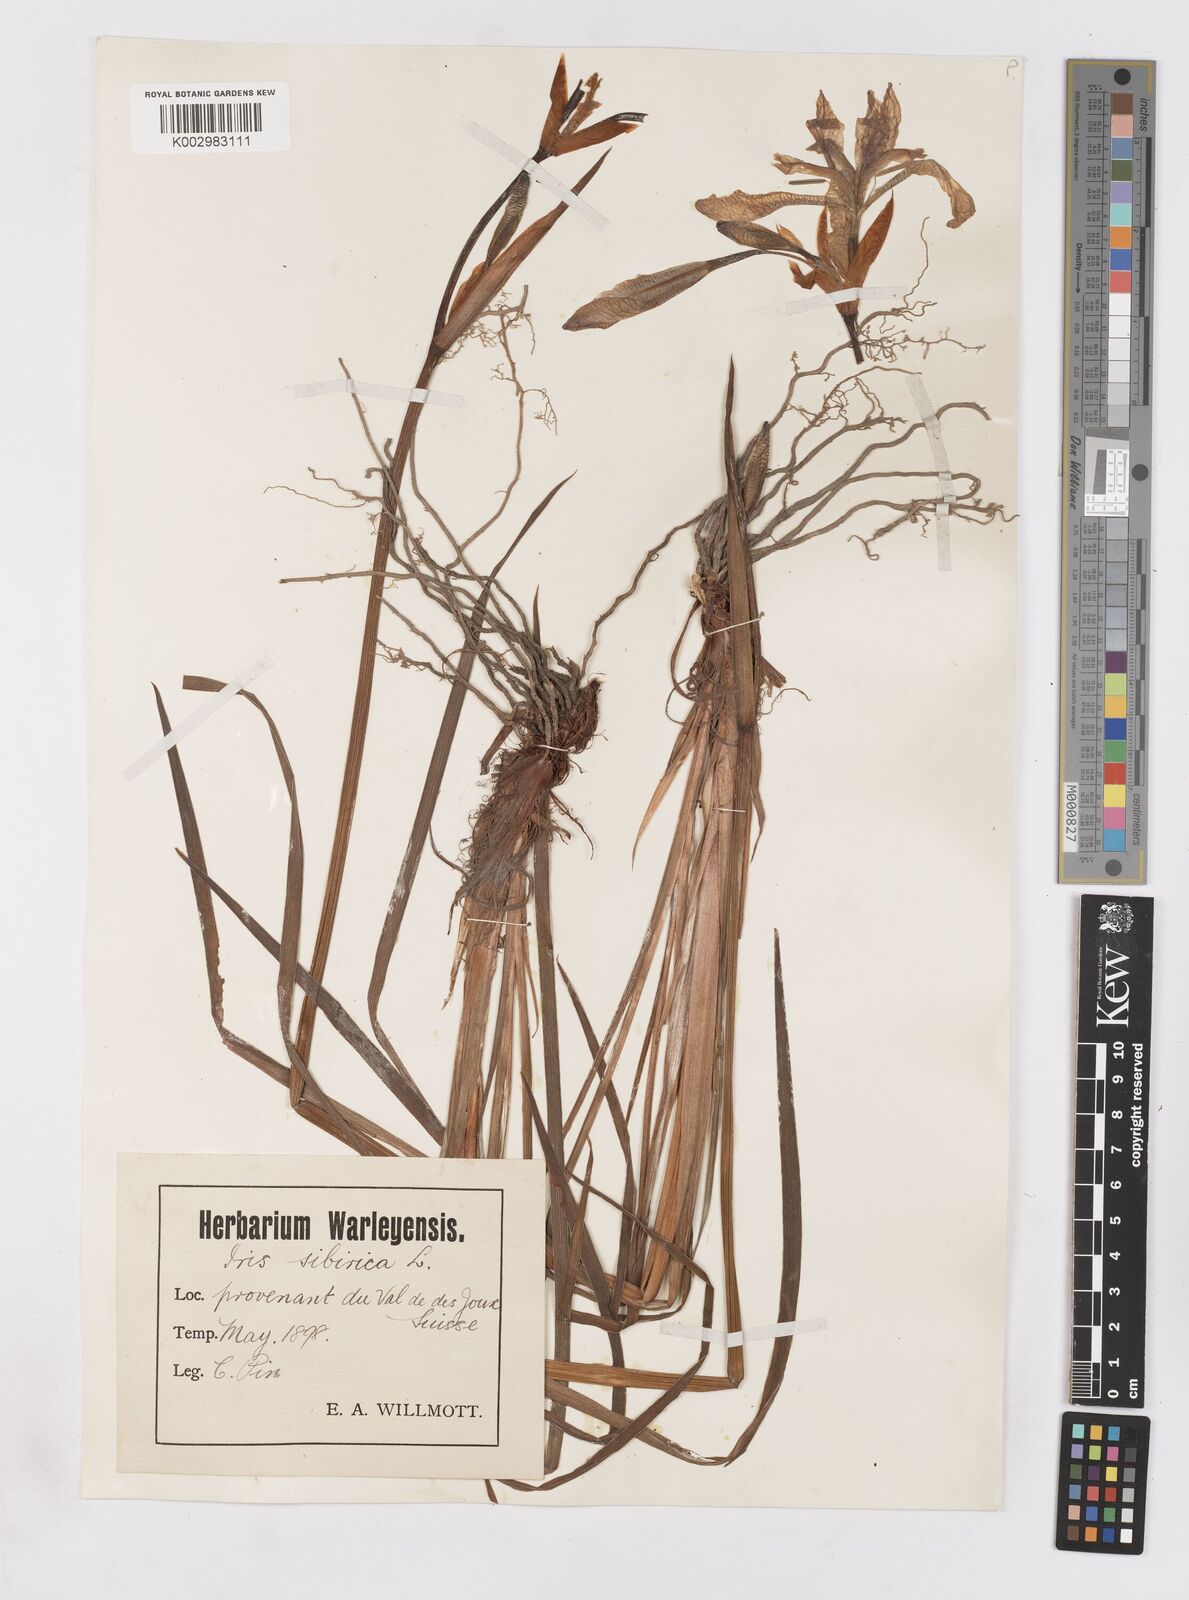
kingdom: Plantae
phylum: Tracheophyta
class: Liliopsida
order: Asparagales
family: Iridaceae
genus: Iris
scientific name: Iris sibirica
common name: Siberian iris
